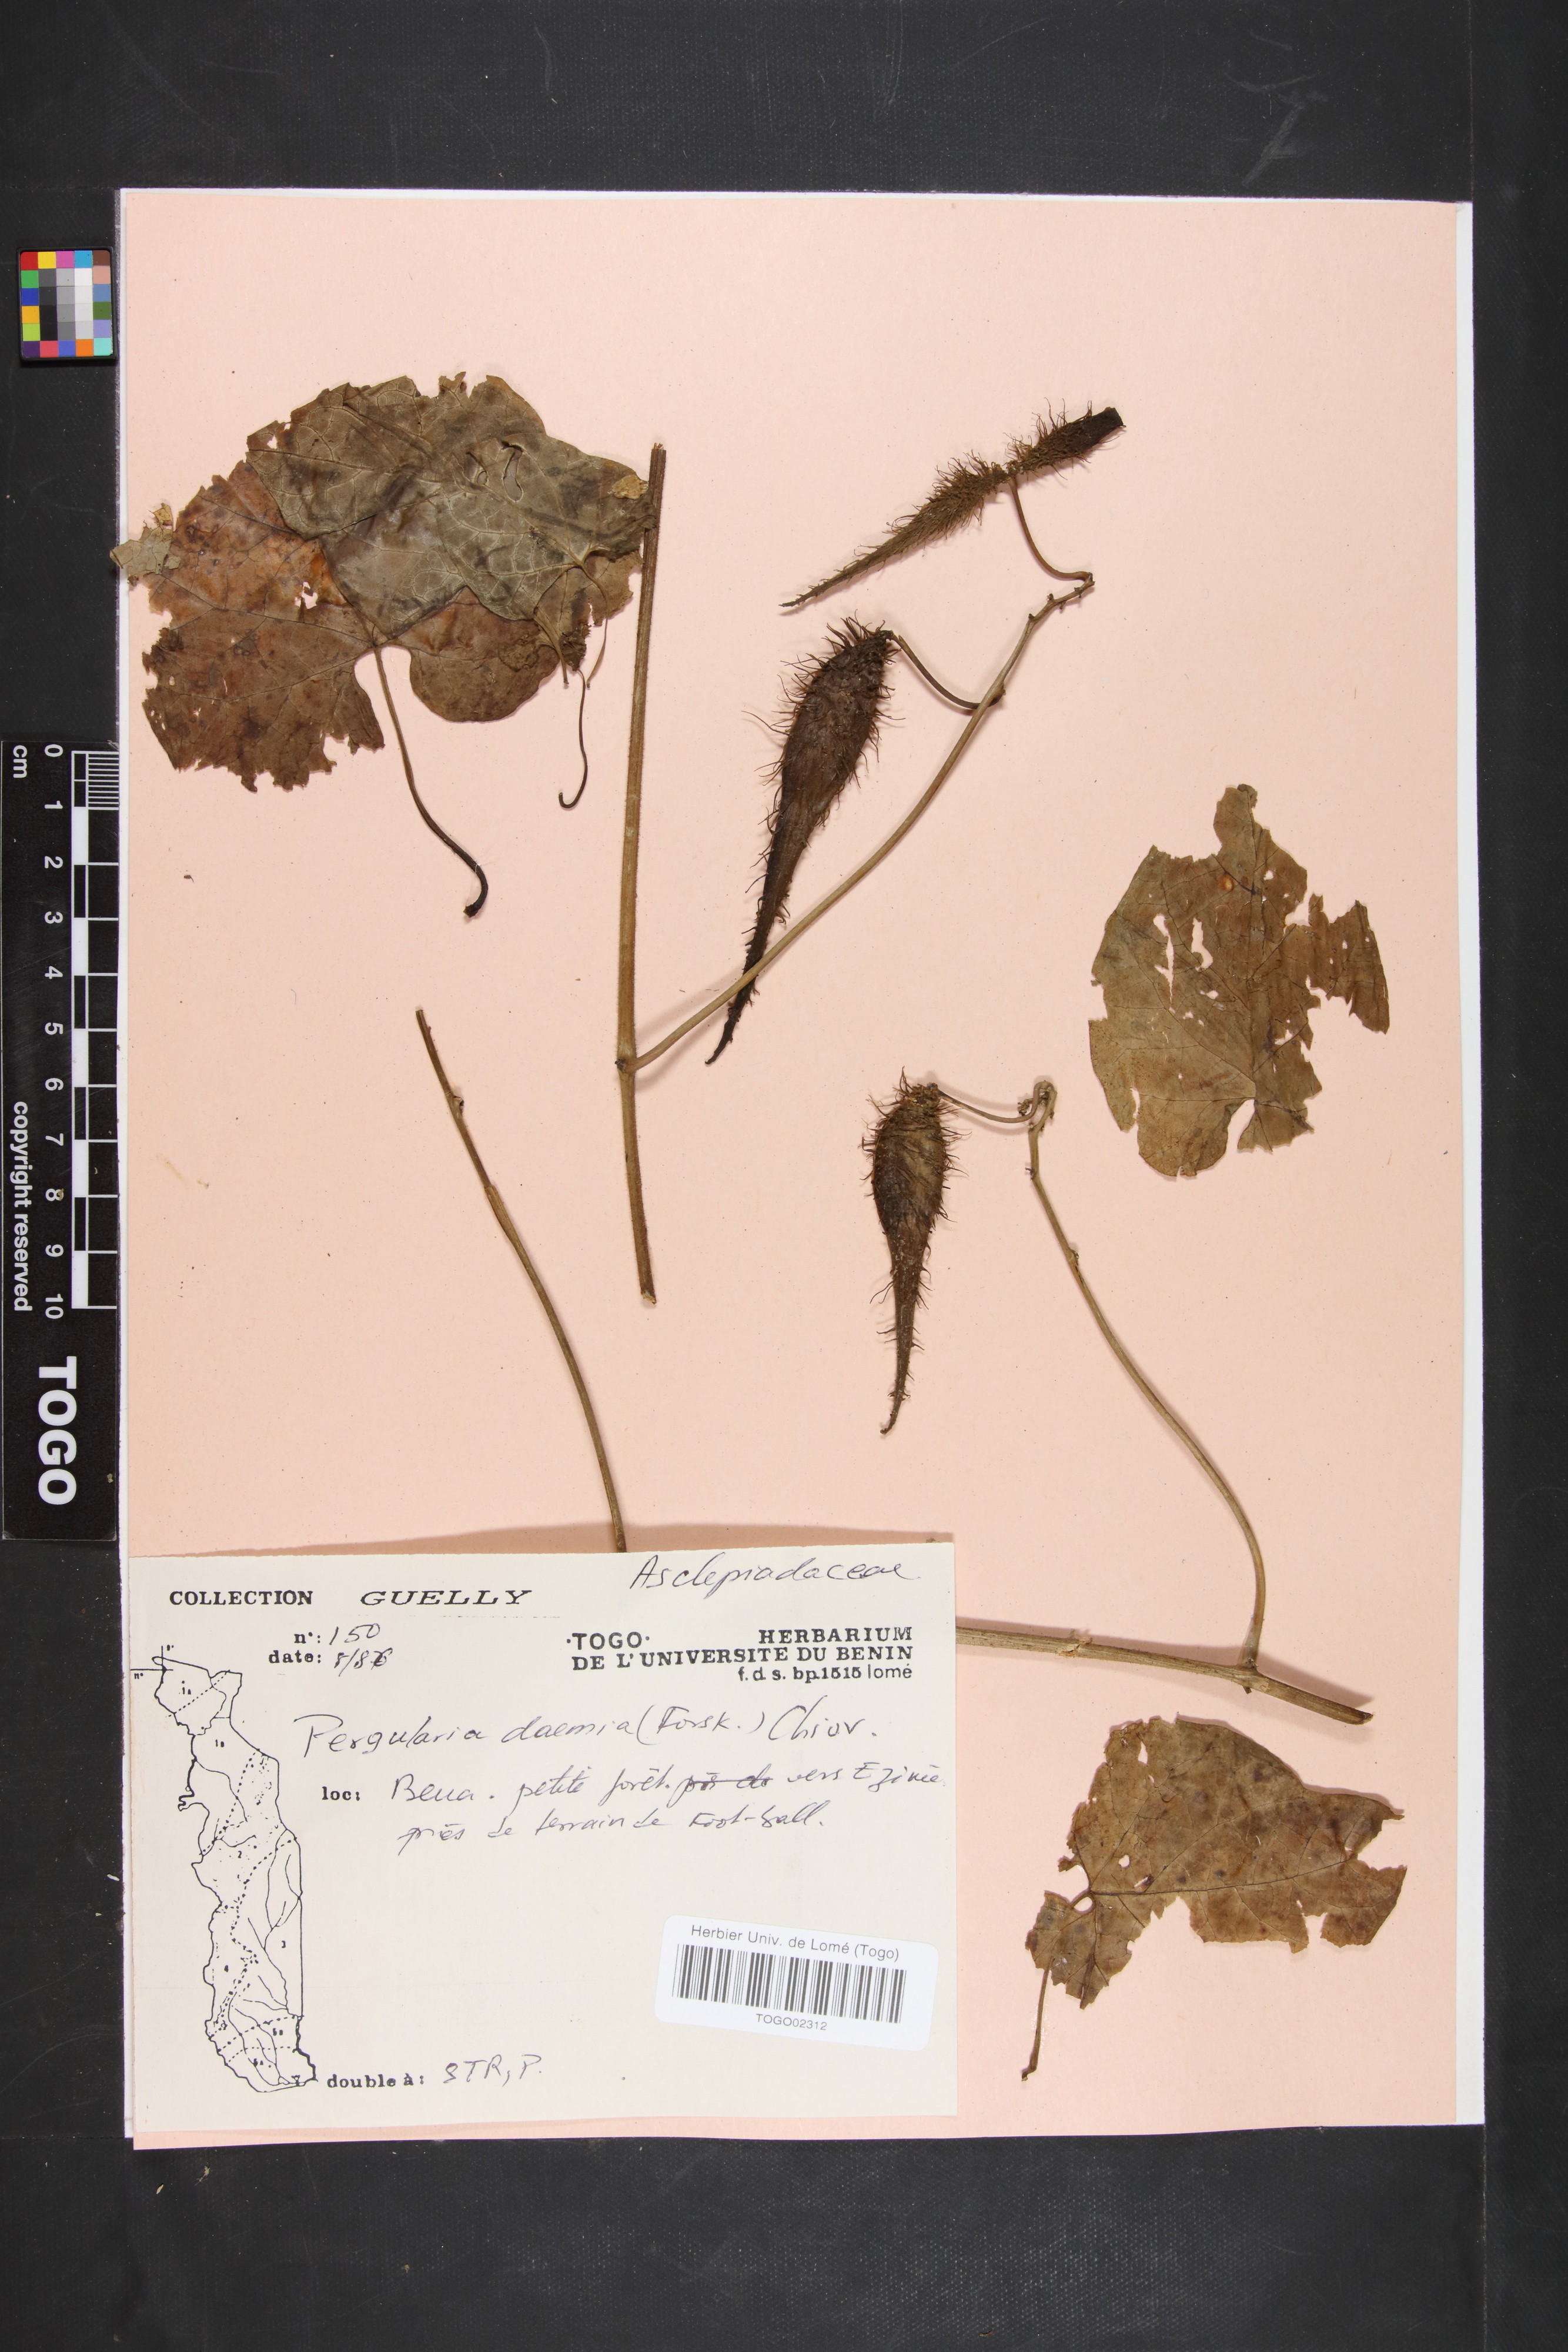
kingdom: Plantae
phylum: Tracheophyta
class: Magnoliopsida
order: Gentianales
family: Apocynaceae
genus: Pergularia
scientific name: Pergularia daemia
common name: Trellis-vine
